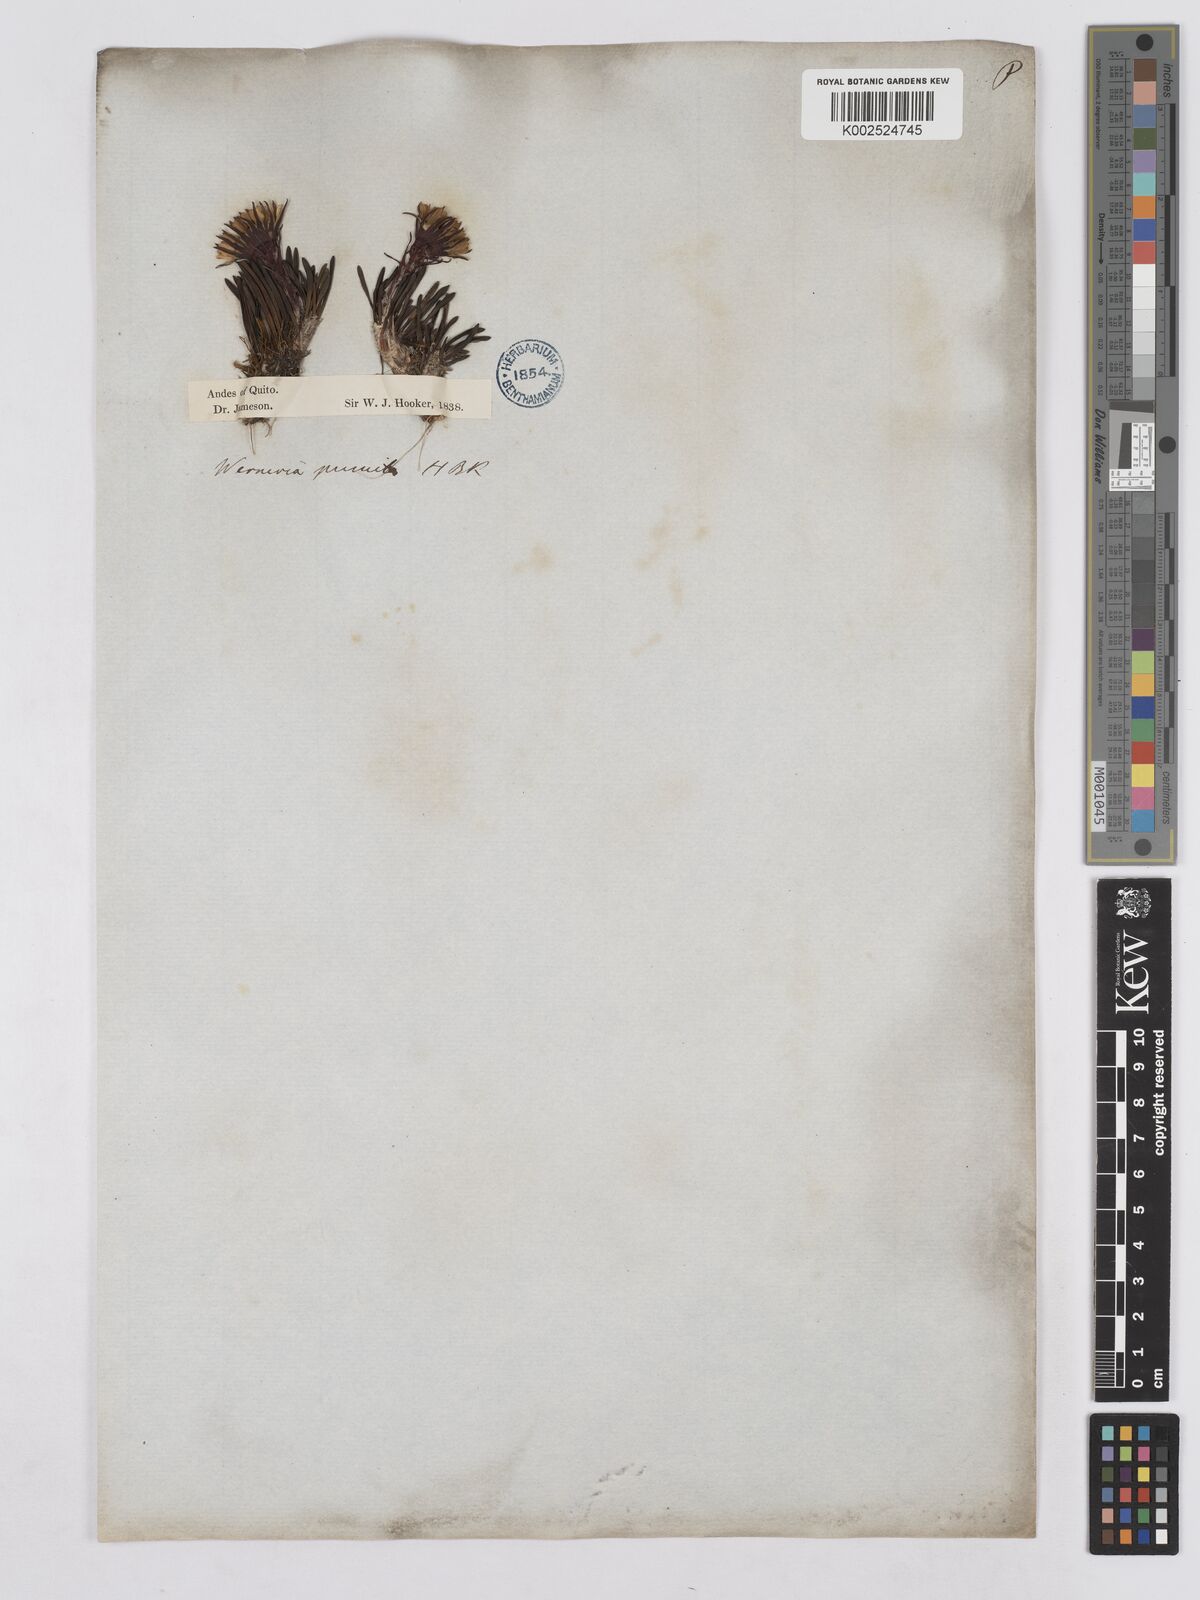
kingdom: Plantae
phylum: Tracheophyta
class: Magnoliopsida
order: Asterales
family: Asteraceae
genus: Rockhausenia
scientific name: Rockhausenia pumila
